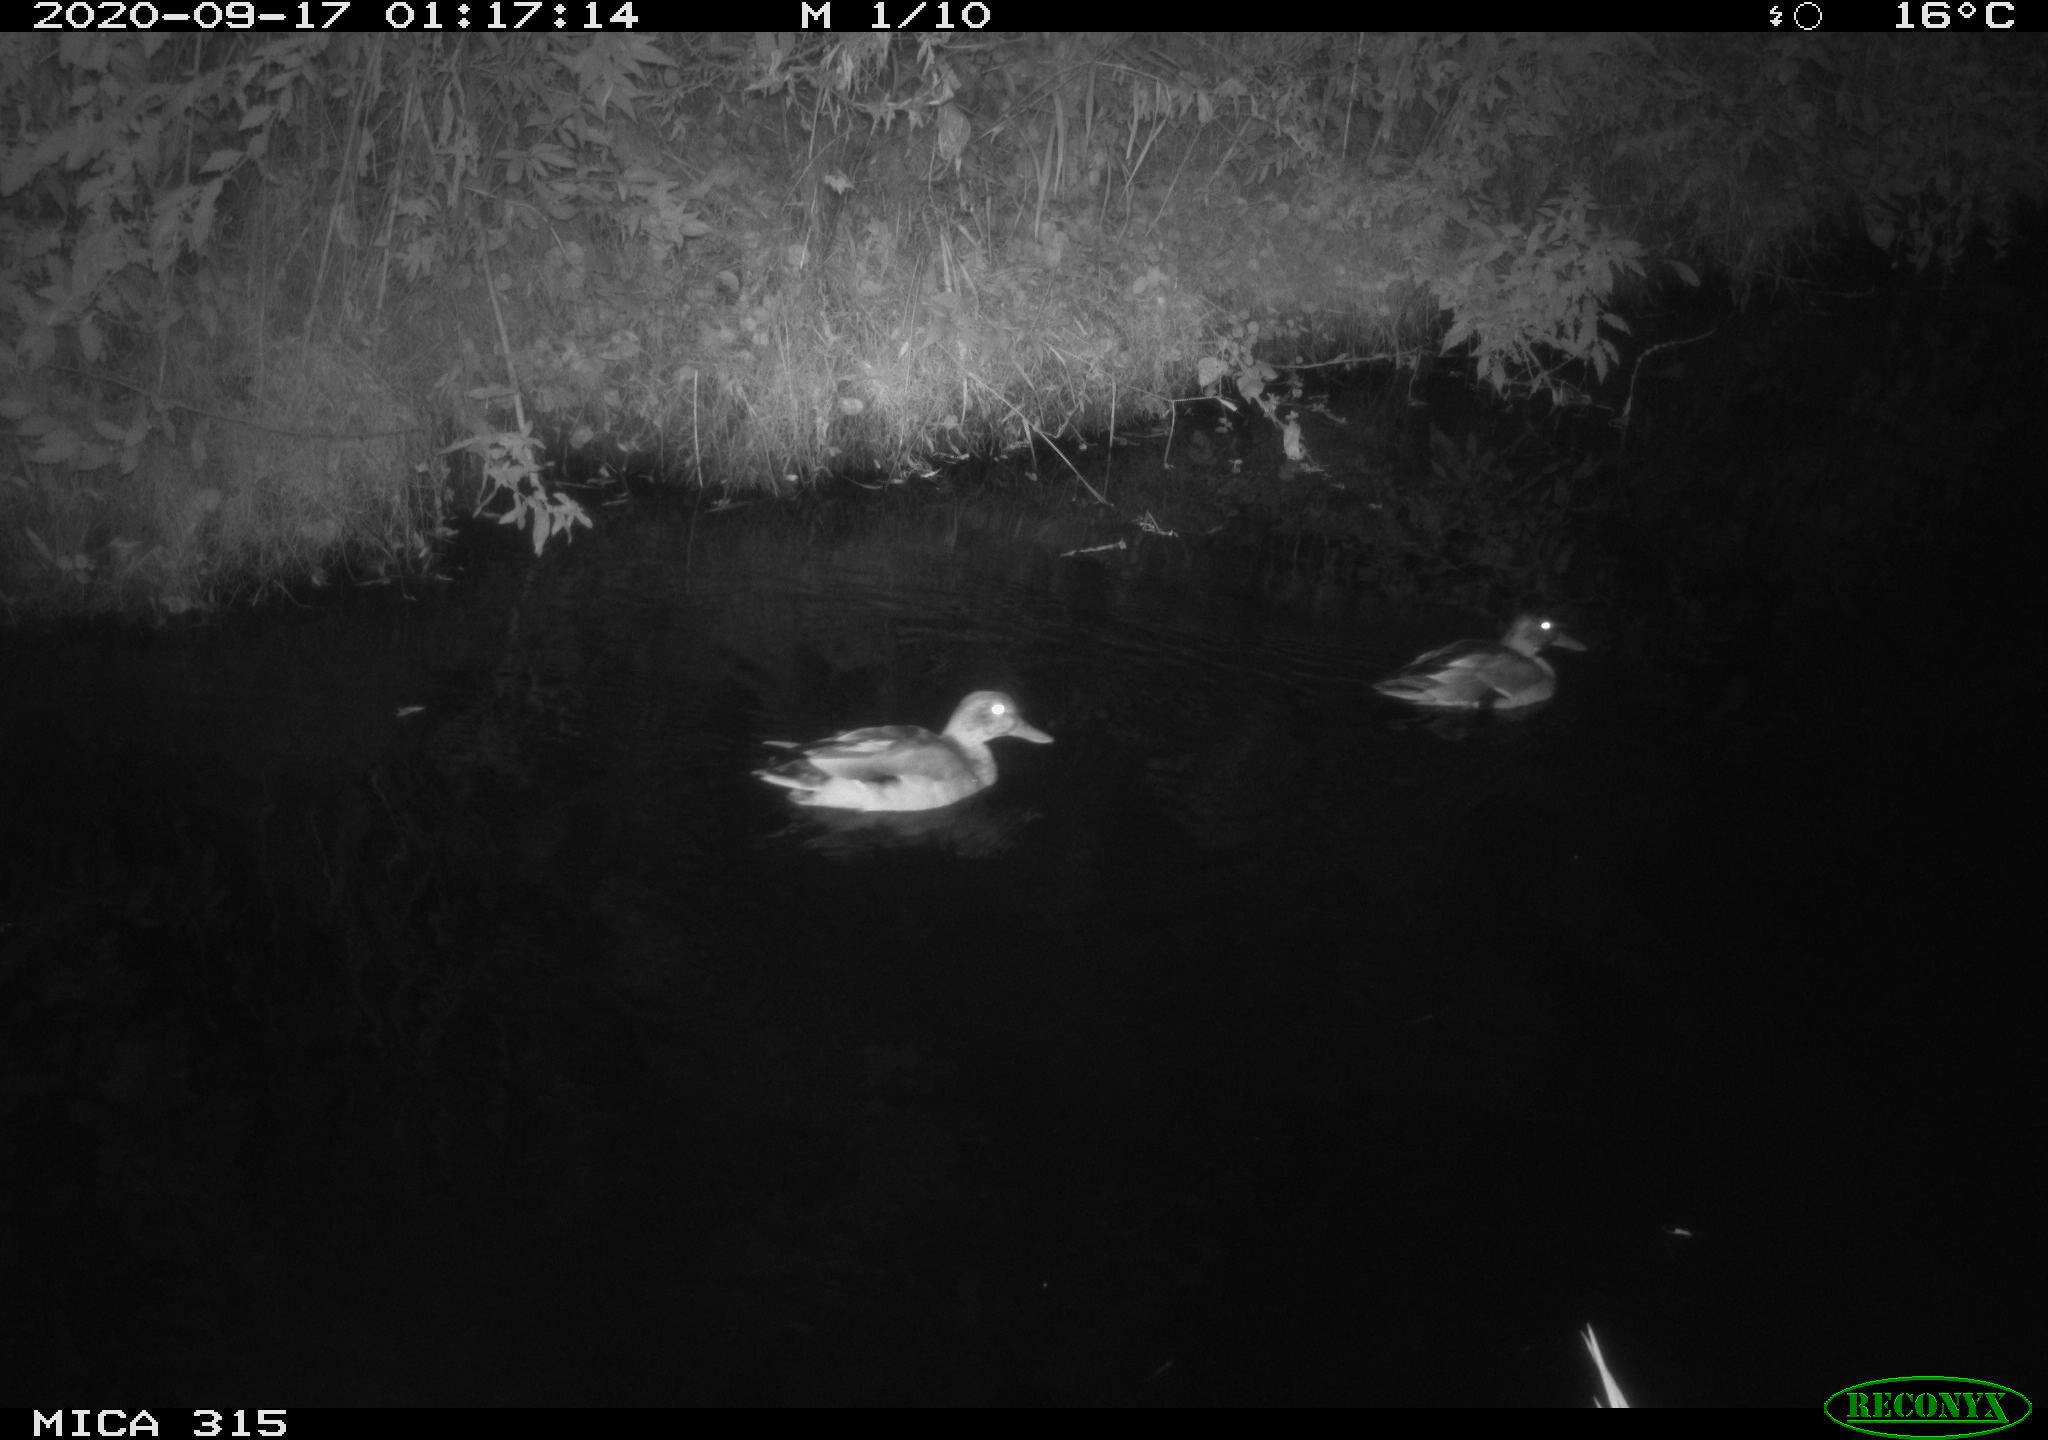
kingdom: Animalia
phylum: Chordata
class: Aves
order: Anseriformes
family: Anatidae
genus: Anas
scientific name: Anas platyrhynchos
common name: Mallard
